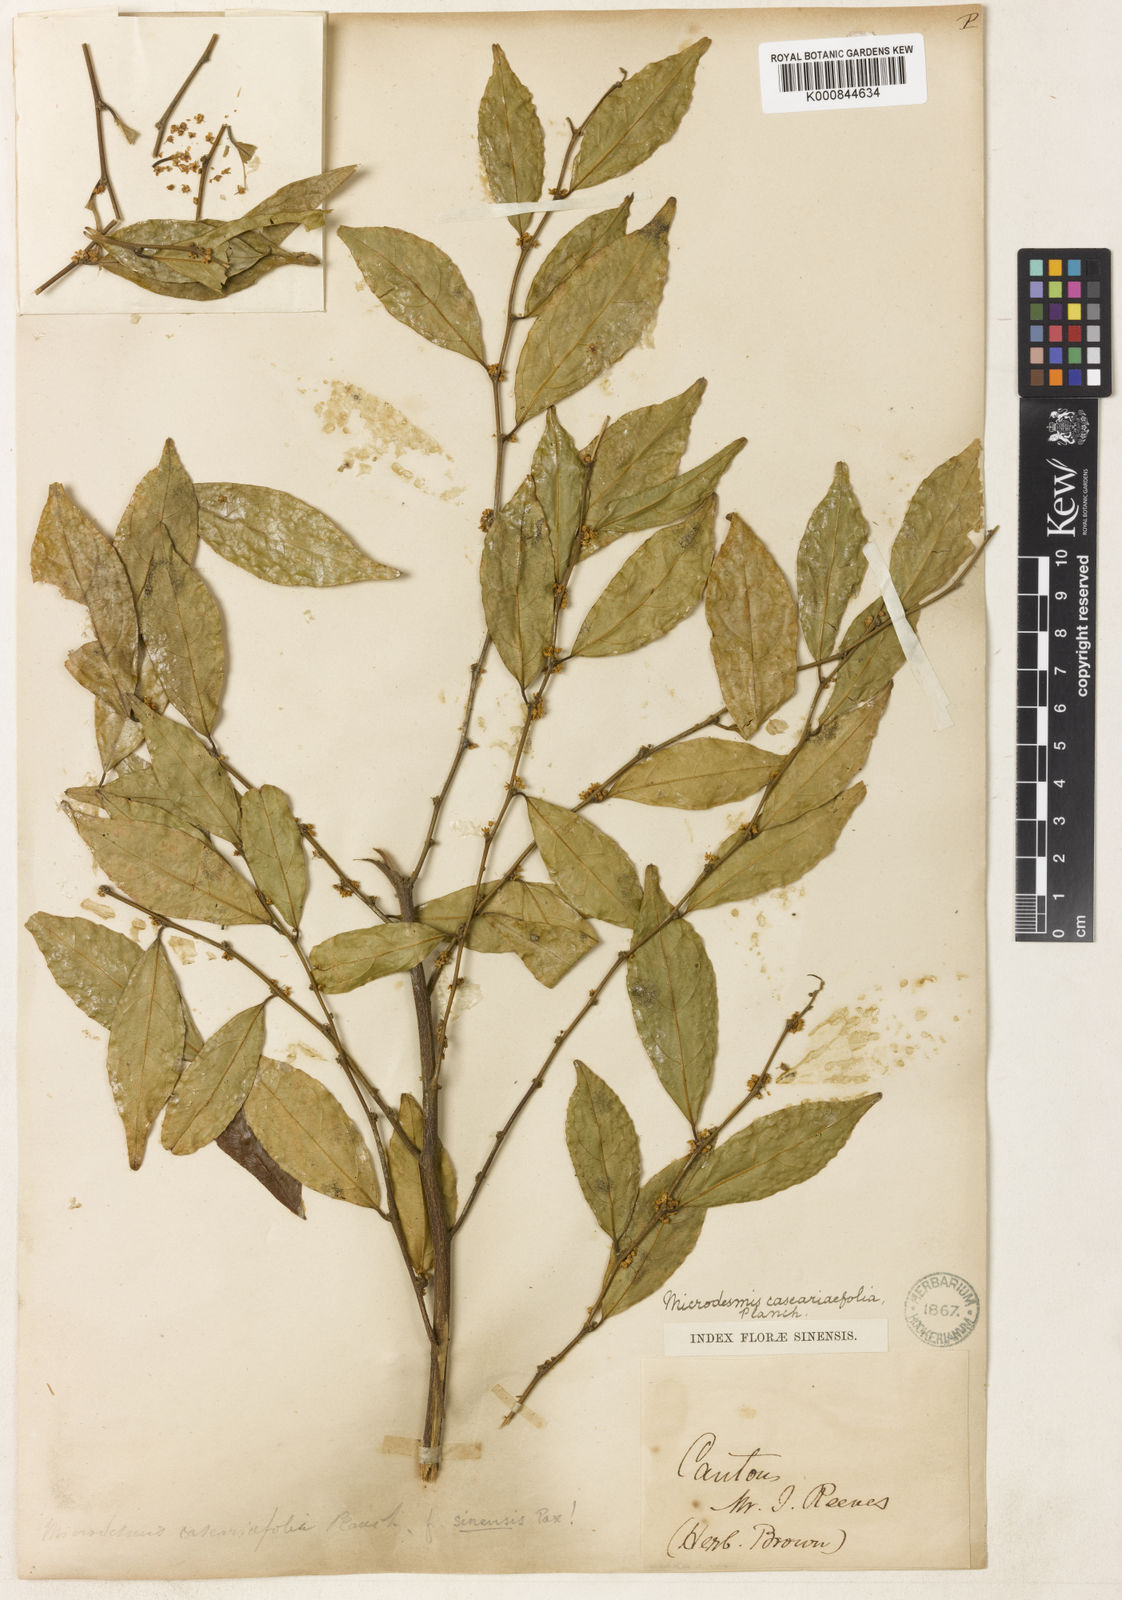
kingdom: Plantae
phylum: Tracheophyta
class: Magnoliopsida
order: Malpighiales
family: Pandaceae
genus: Microdesmis
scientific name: Microdesmis caseariifolia
